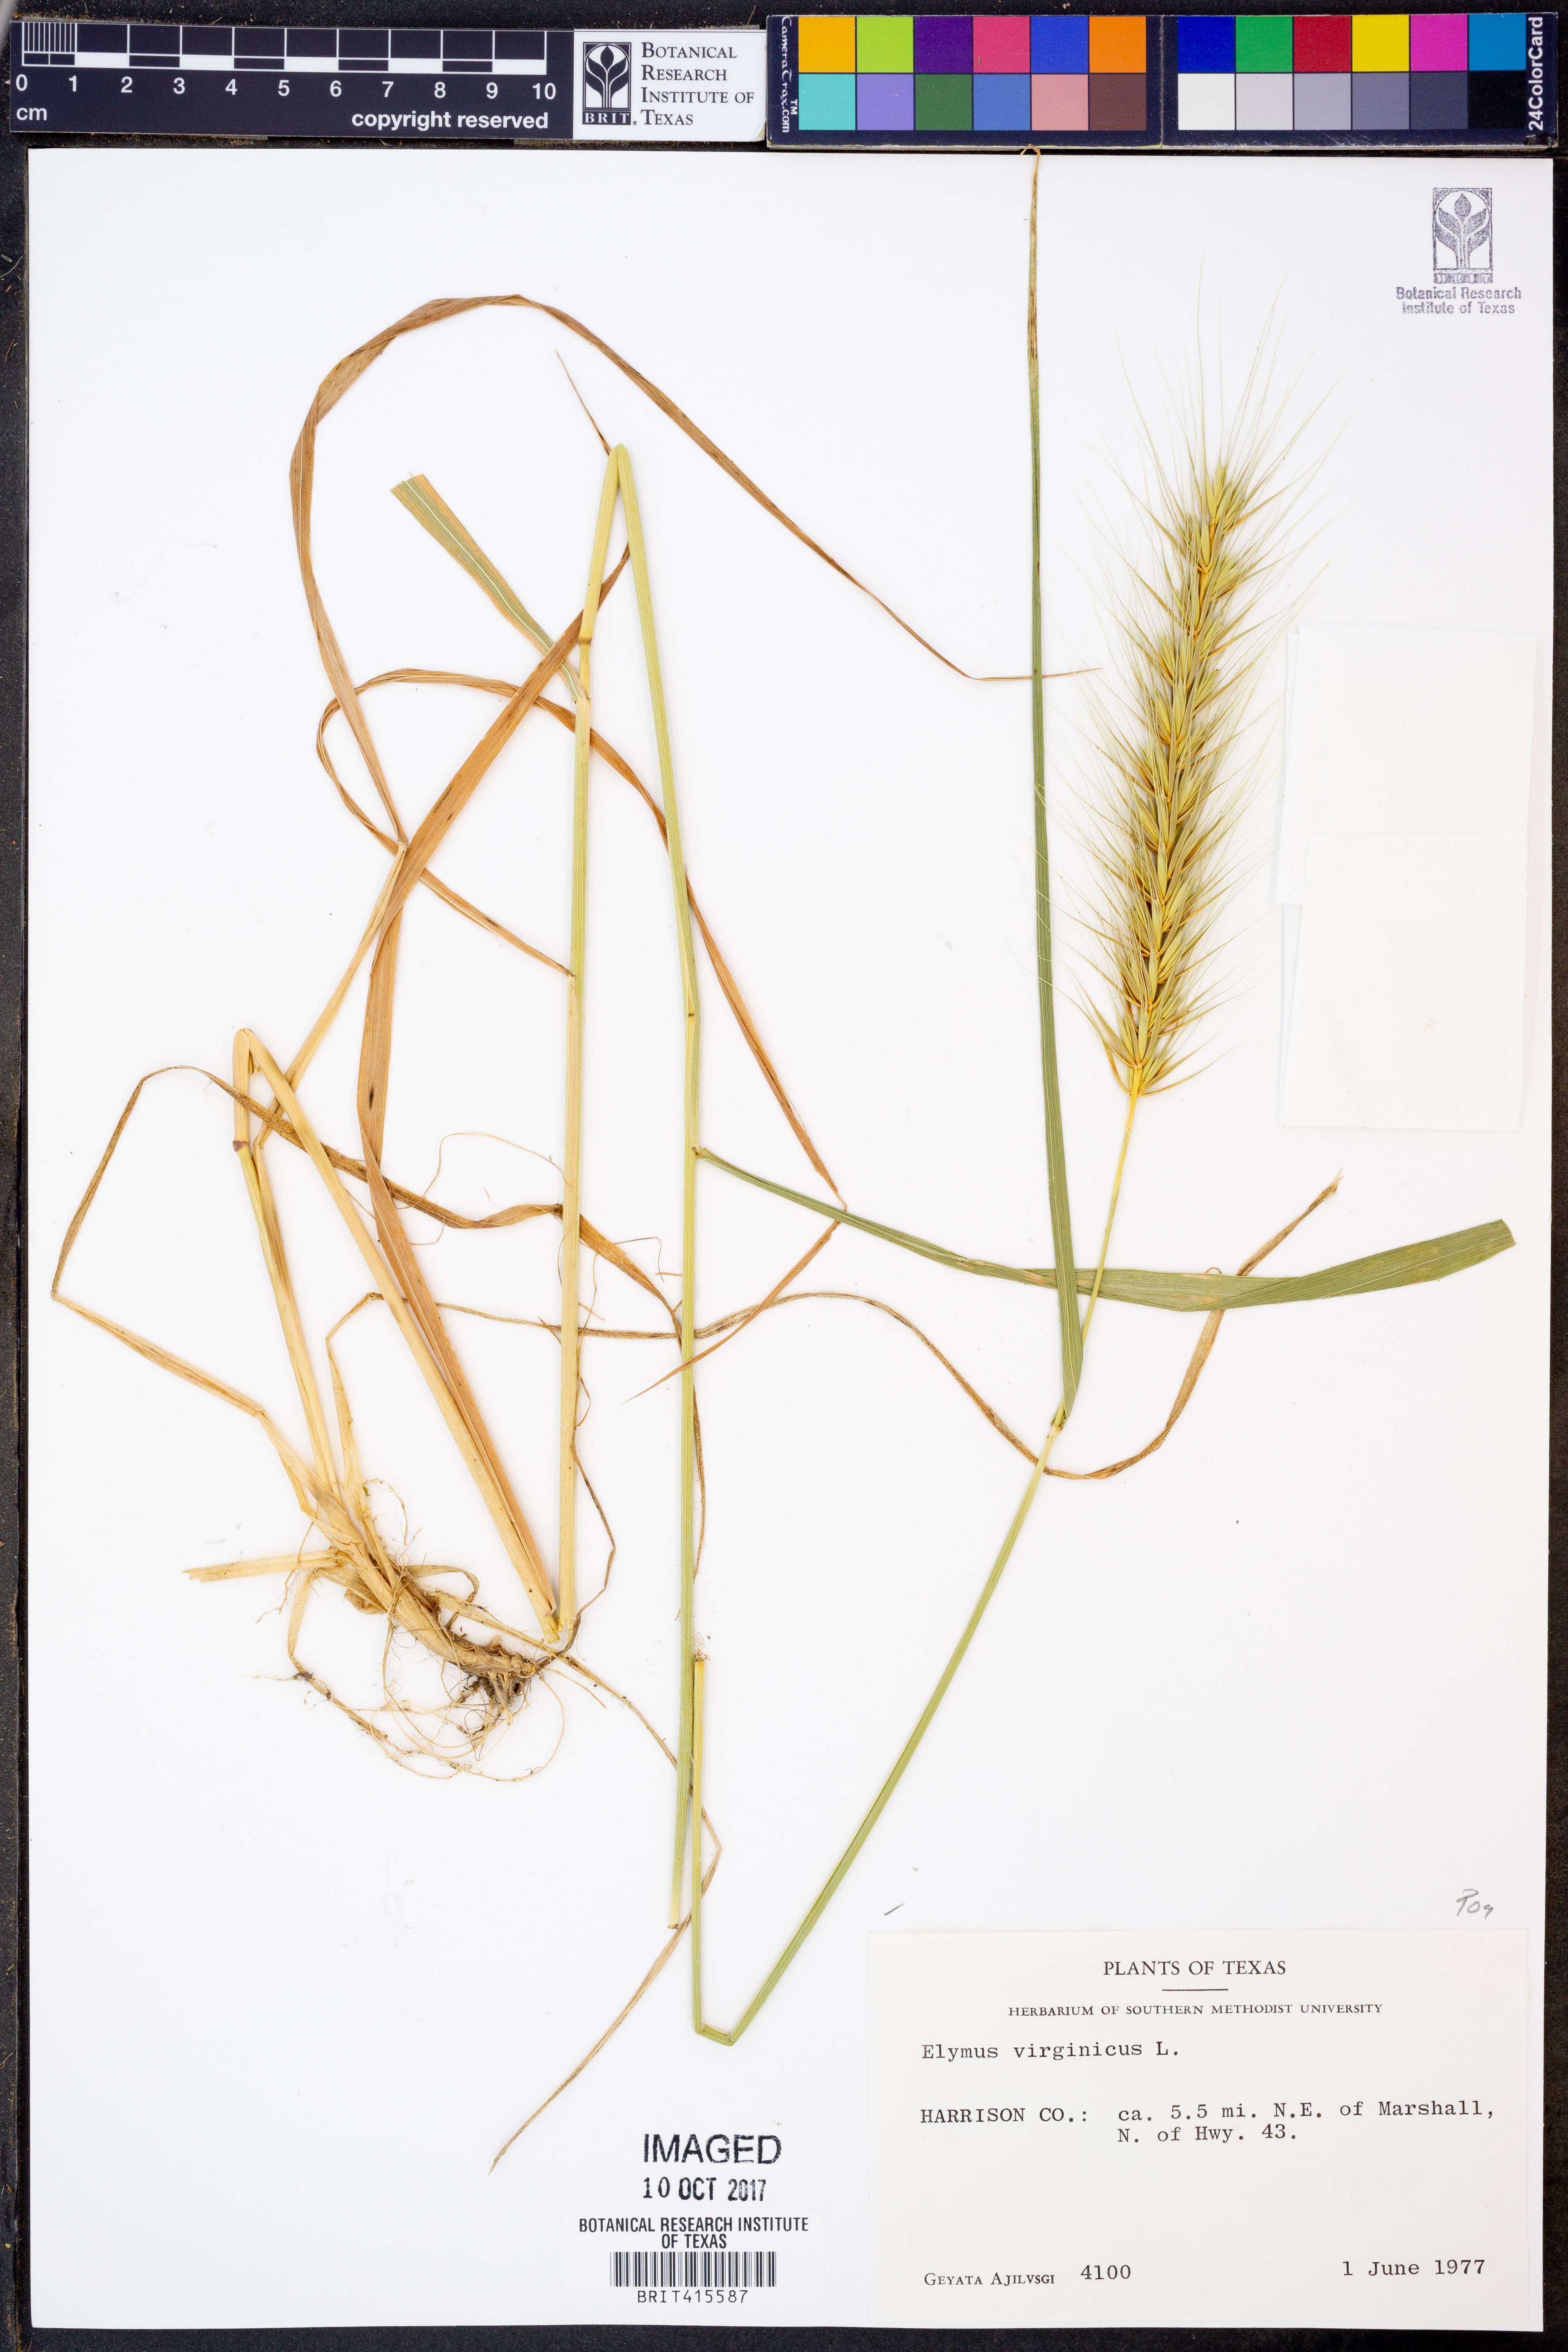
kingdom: Plantae
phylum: Tracheophyta
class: Liliopsida
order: Poales
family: Poaceae
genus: Elymus
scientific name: Elymus virginicus
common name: Common eastern wildrye
